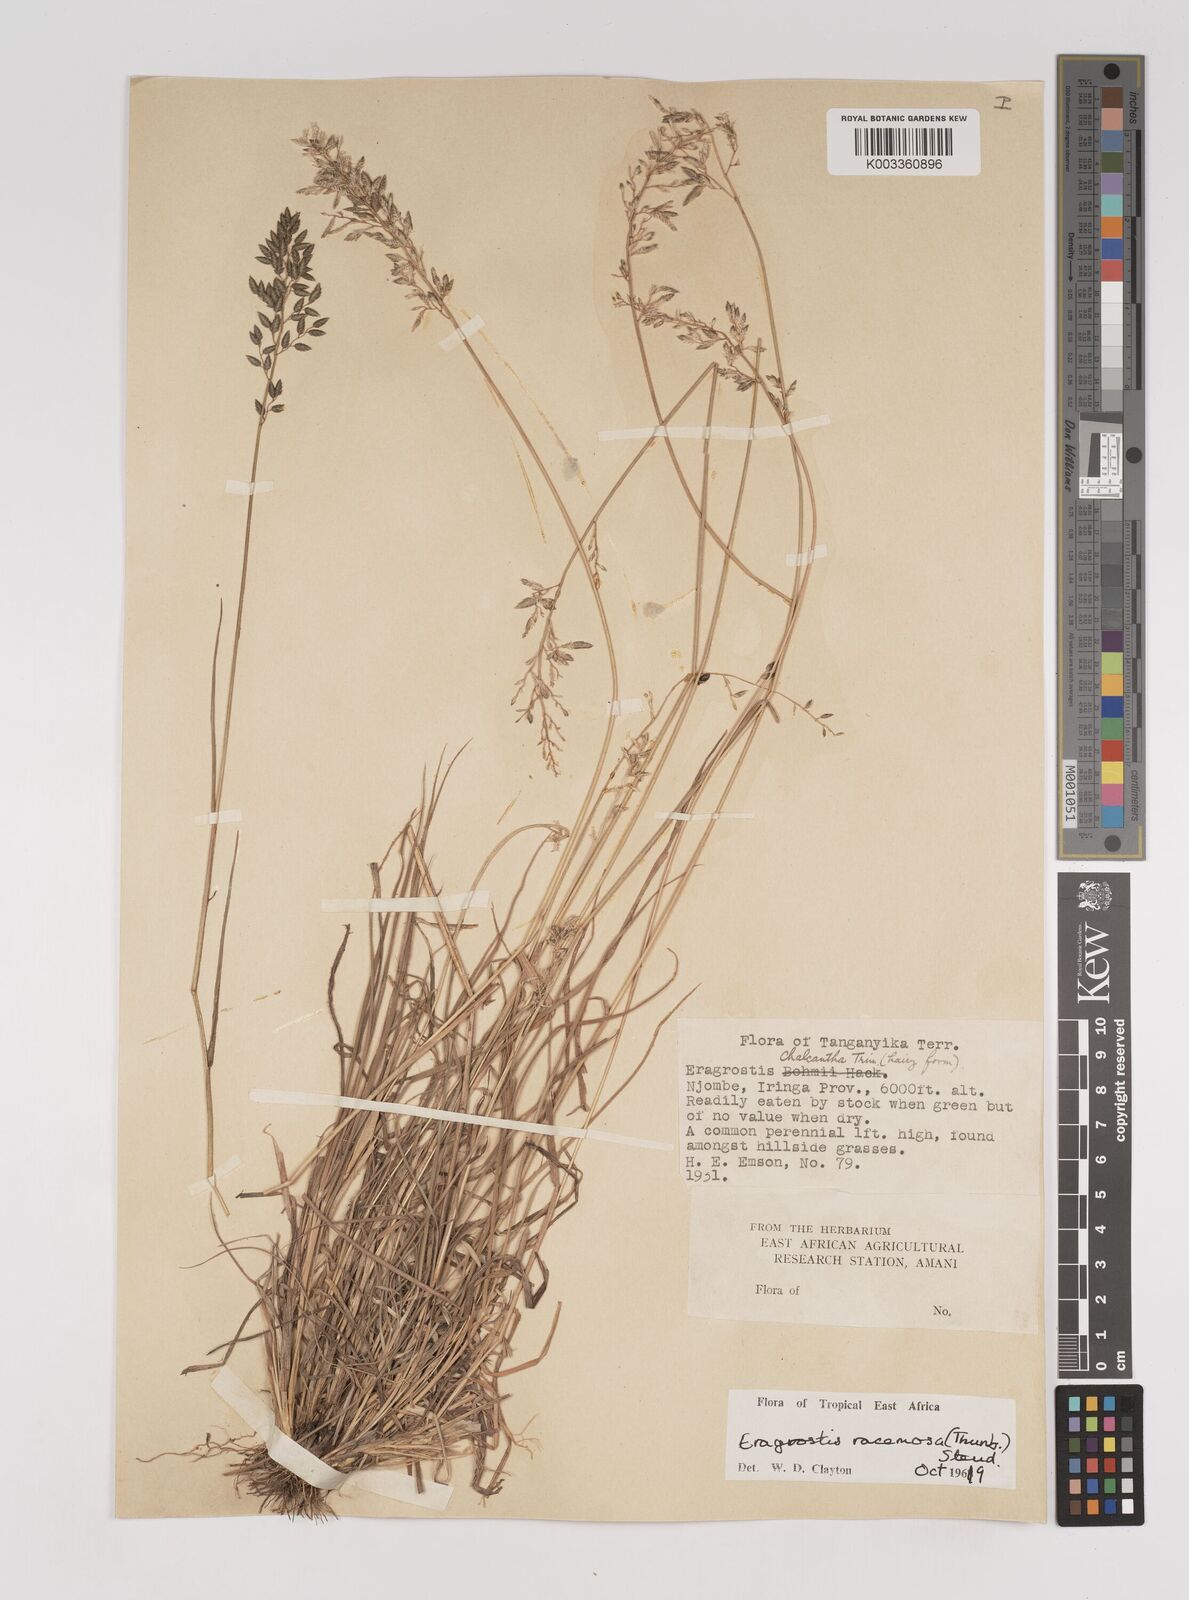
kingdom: Plantae
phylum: Tracheophyta
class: Liliopsida
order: Poales
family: Poaceae
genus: Eragrostis
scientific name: Eragrostis racemosa
